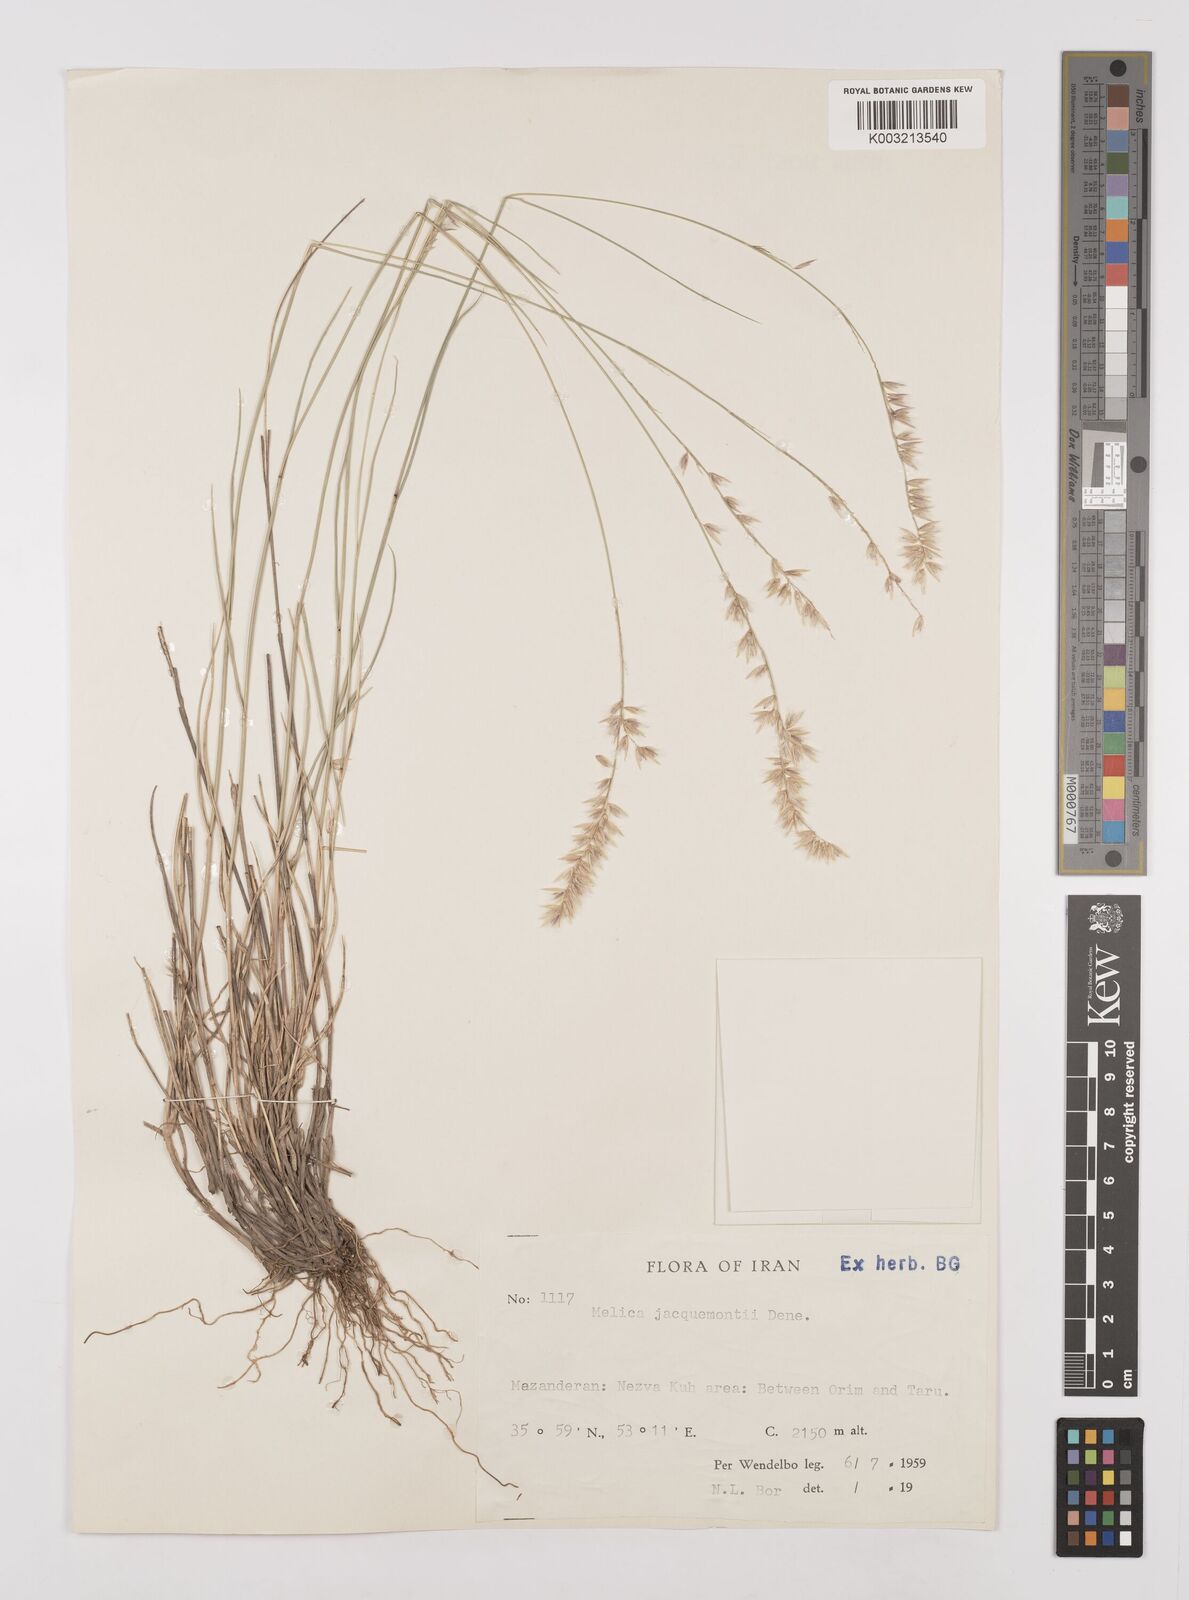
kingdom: Plantae
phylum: Tracheophyta
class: Liliopsida
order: Poales
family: Poaceae
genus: Melica
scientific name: Melica persica
